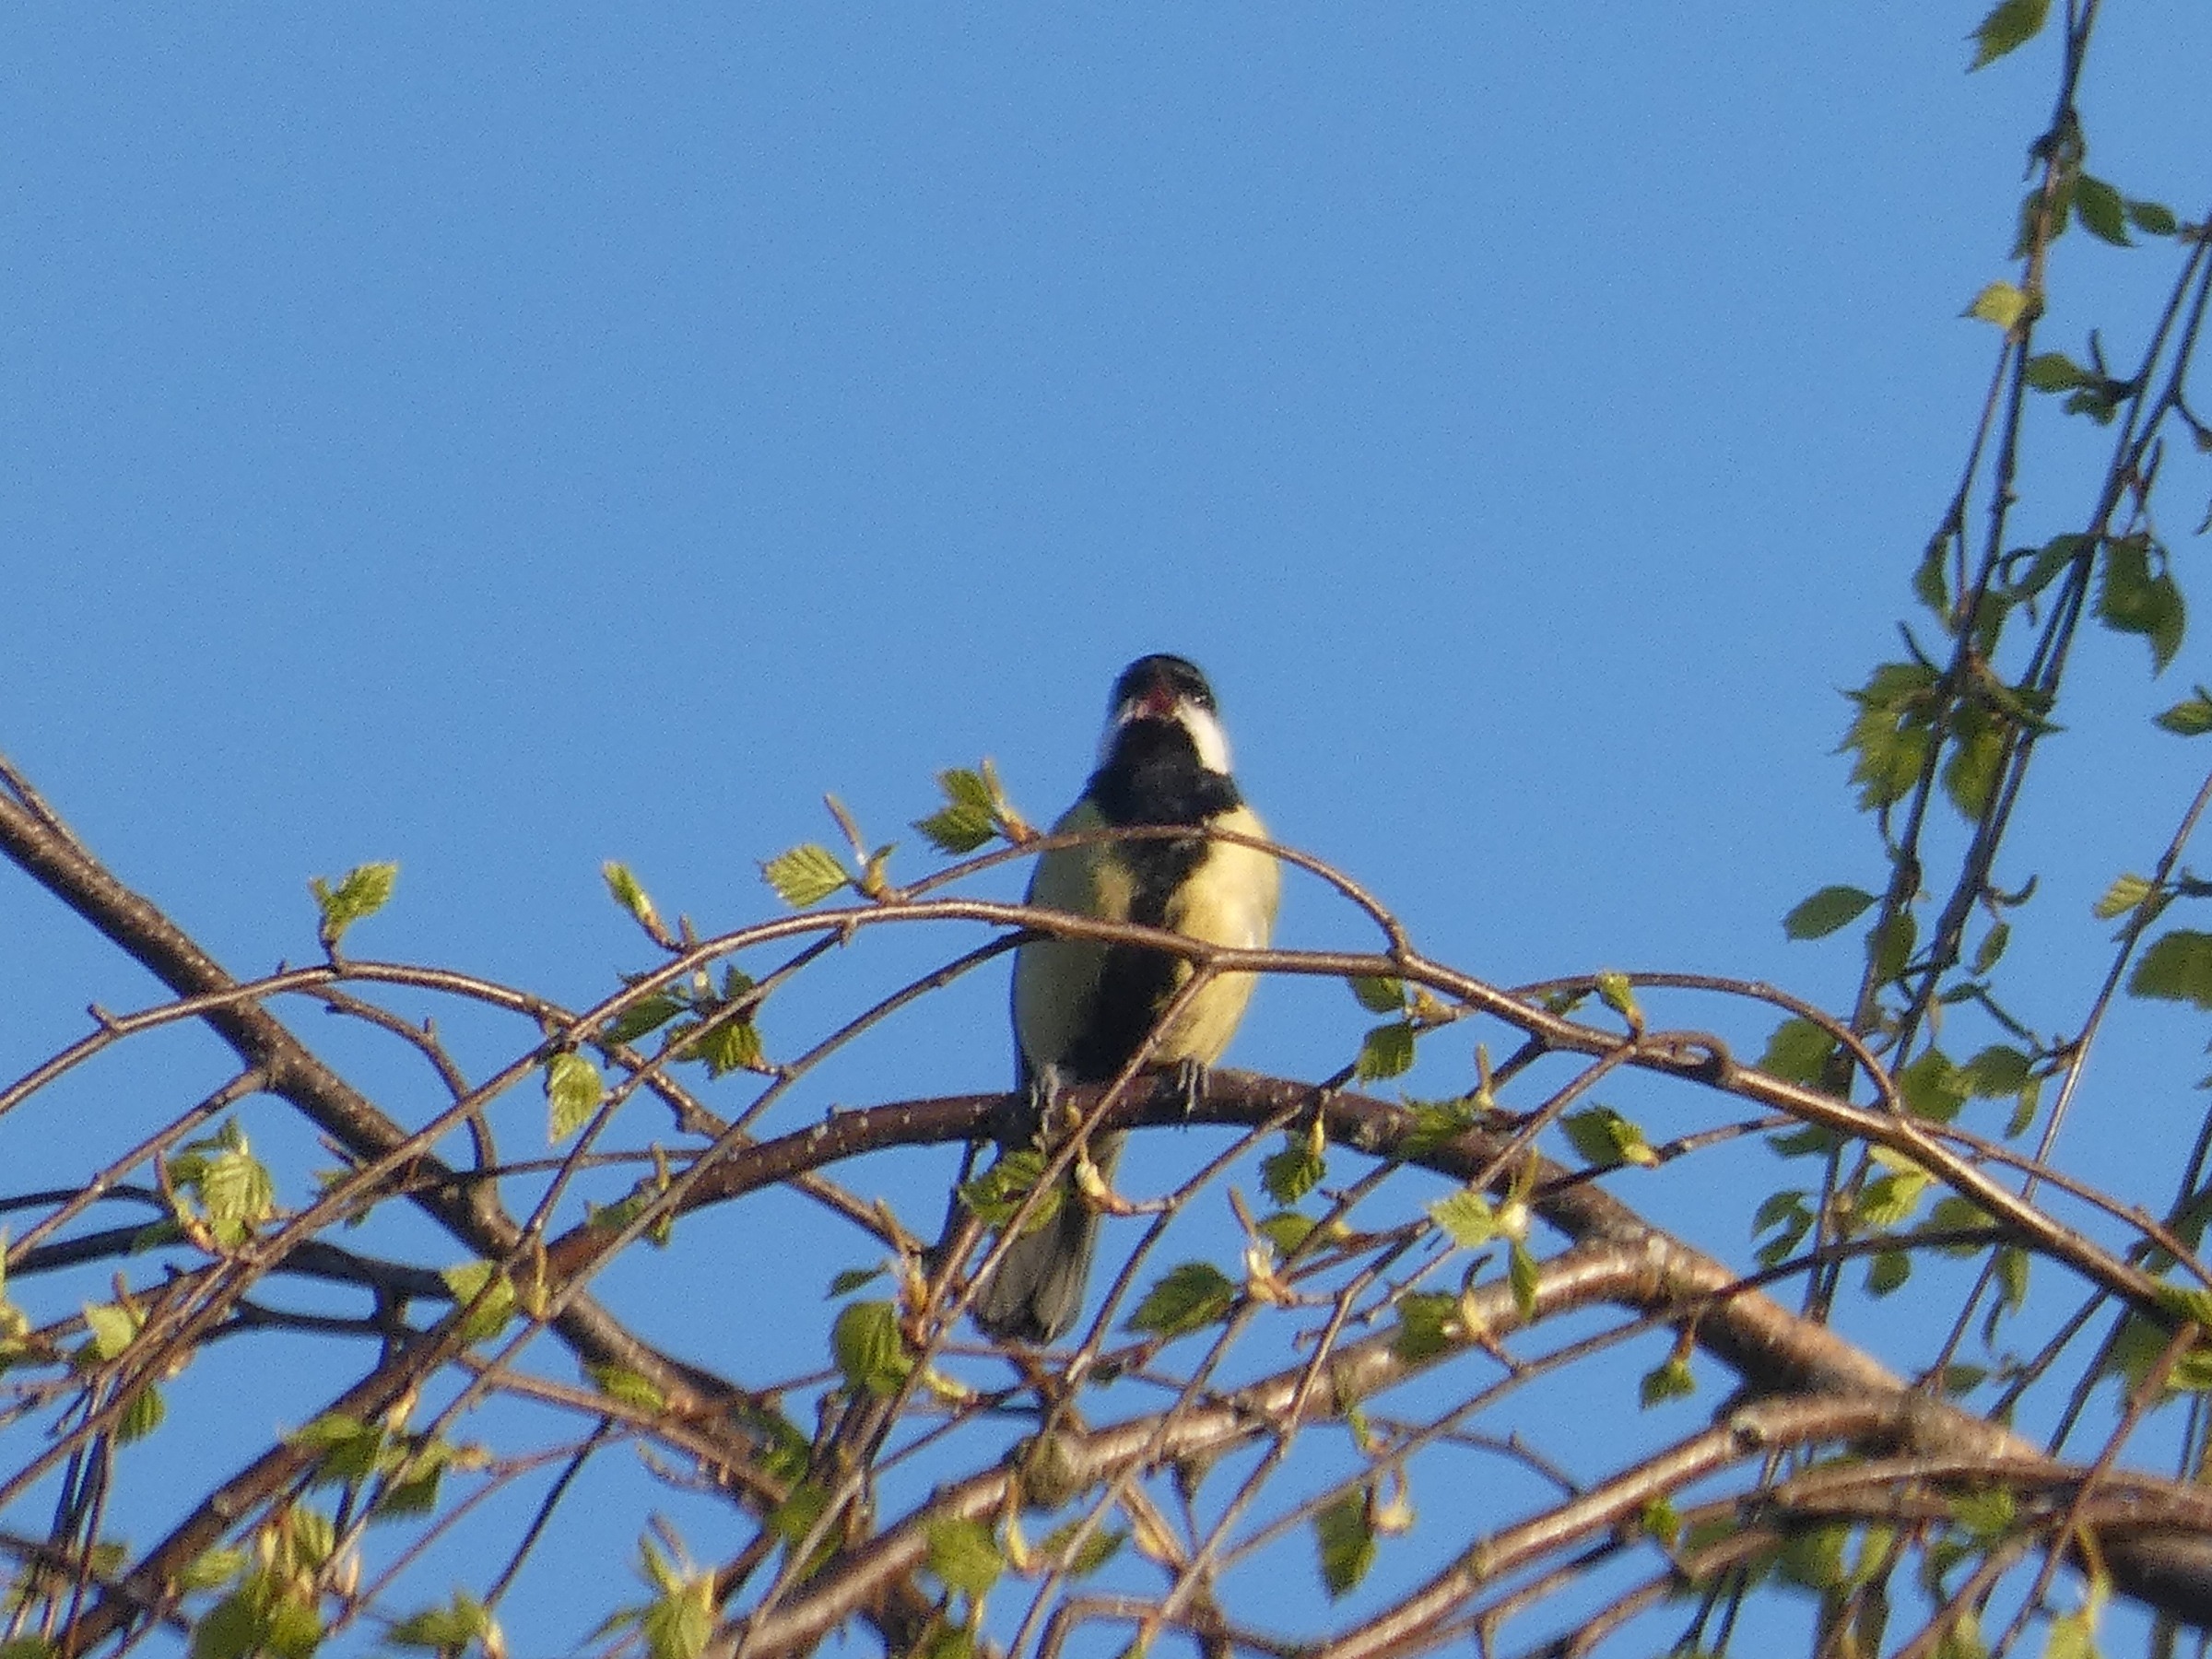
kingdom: Animalia
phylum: Chordata
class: Aves
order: Passeriformes
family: Paridae
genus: Parus
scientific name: Parus major
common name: Musvit
